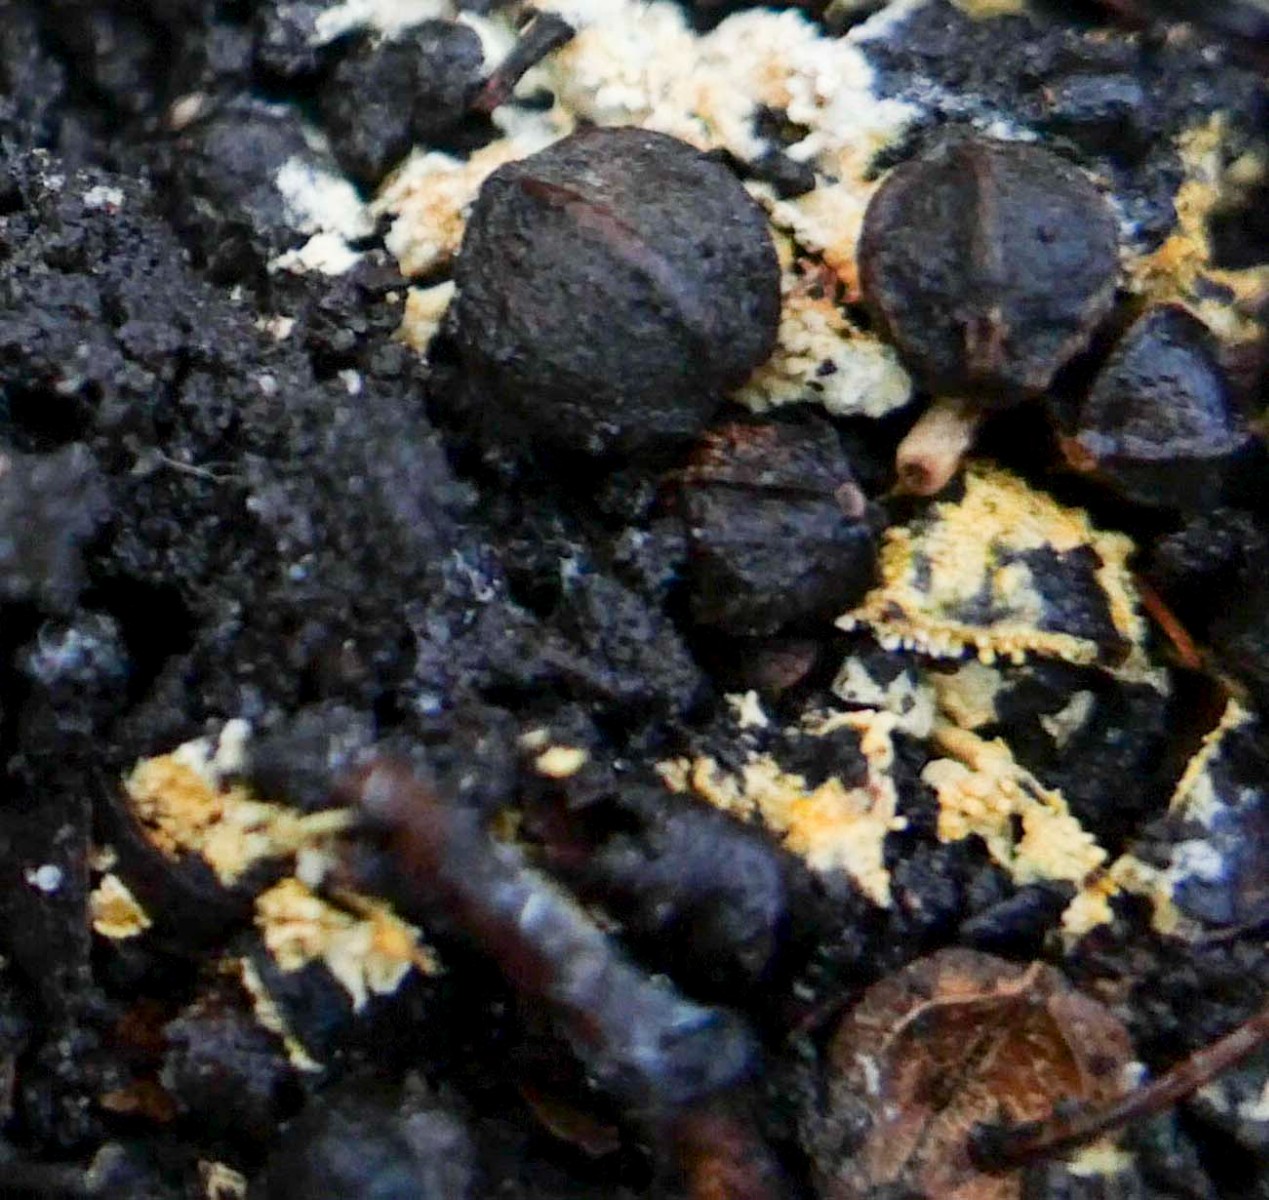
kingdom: Fungi
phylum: Basidiomycota
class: Agaricomycetes
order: Agaricales
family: Stephanosporaceae
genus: Lindtneria
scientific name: Lindtneria panphyliensis
